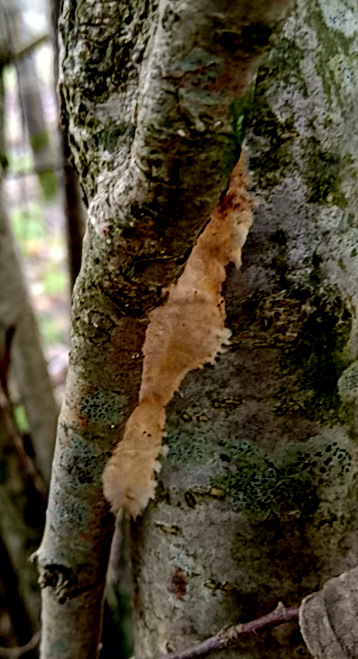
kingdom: Fungi
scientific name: Fungi
